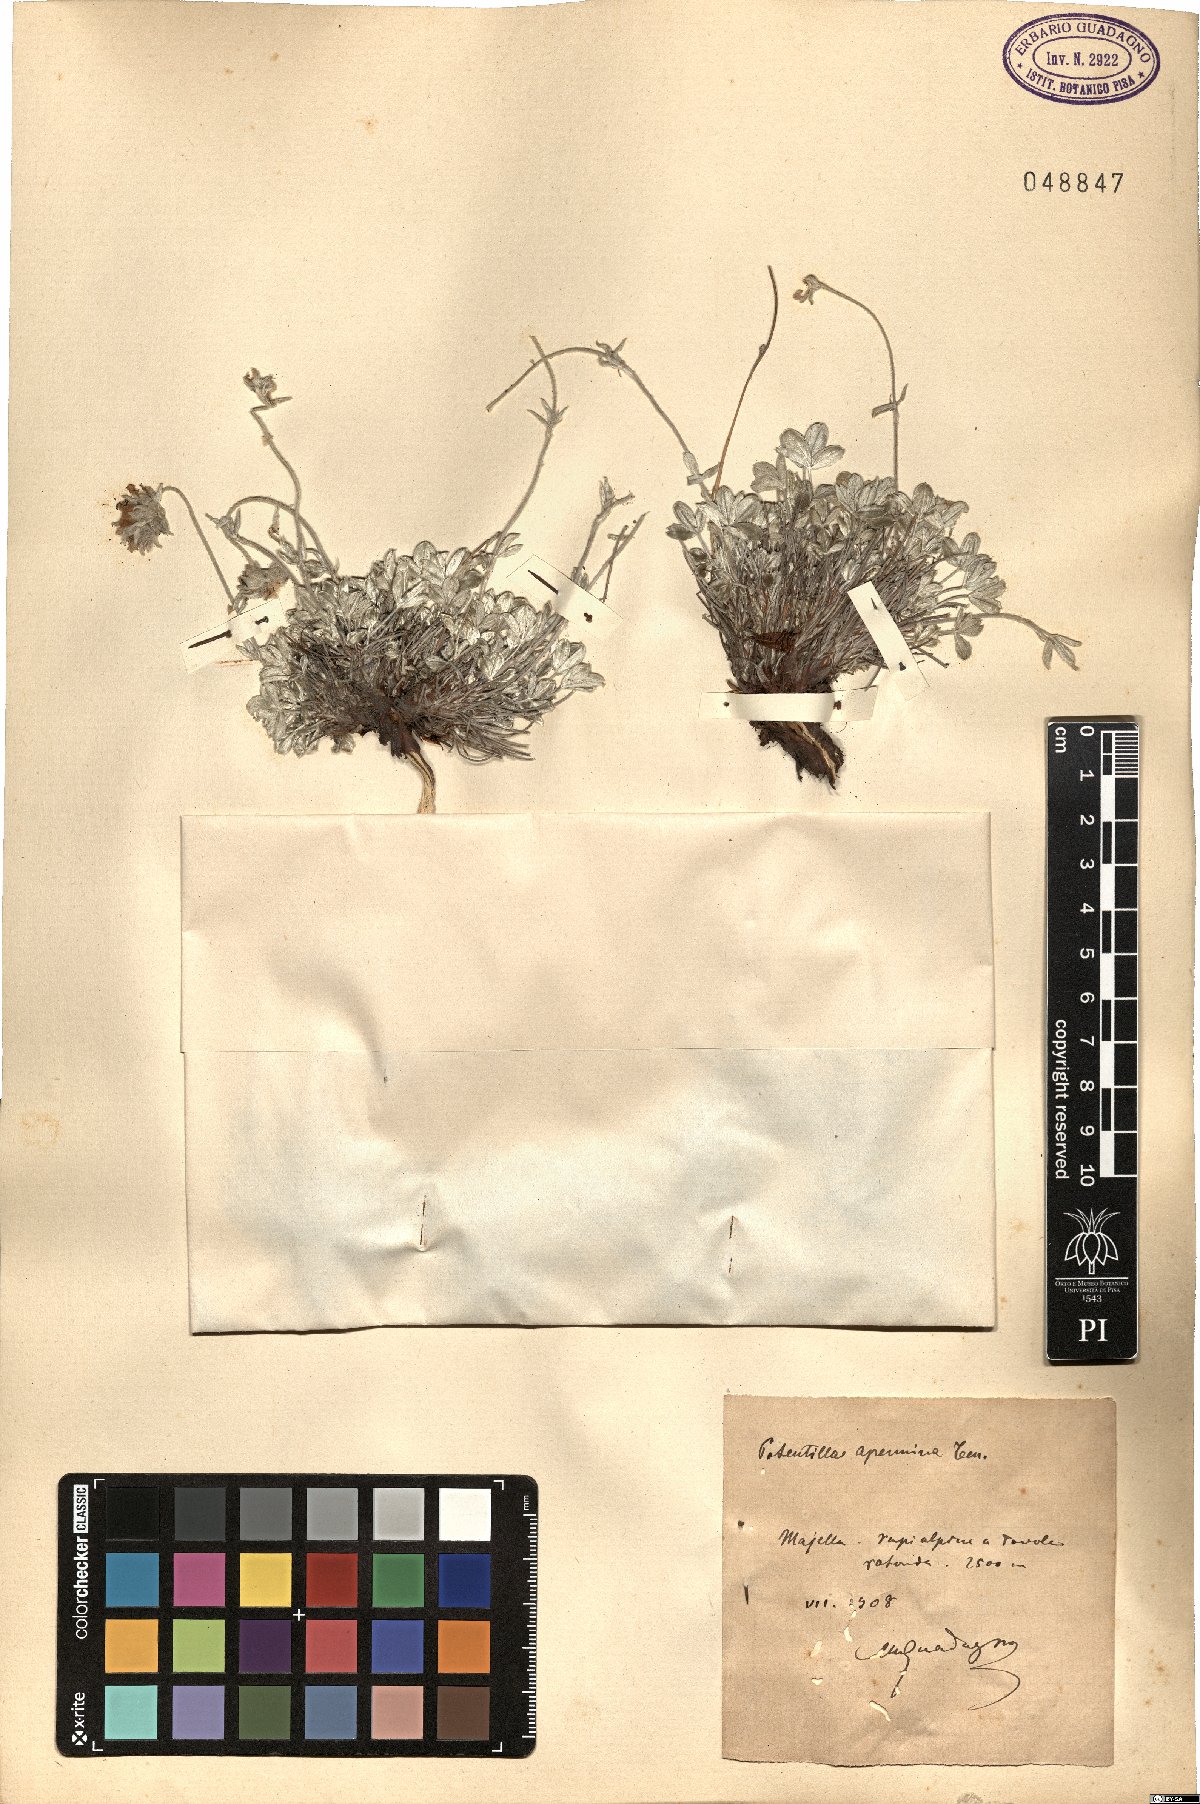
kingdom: Plantae
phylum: Tracheophyta
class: Magnoliopsida
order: Rosales
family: Rosaceae
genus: Potentilla
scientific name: Potentilla apennina
